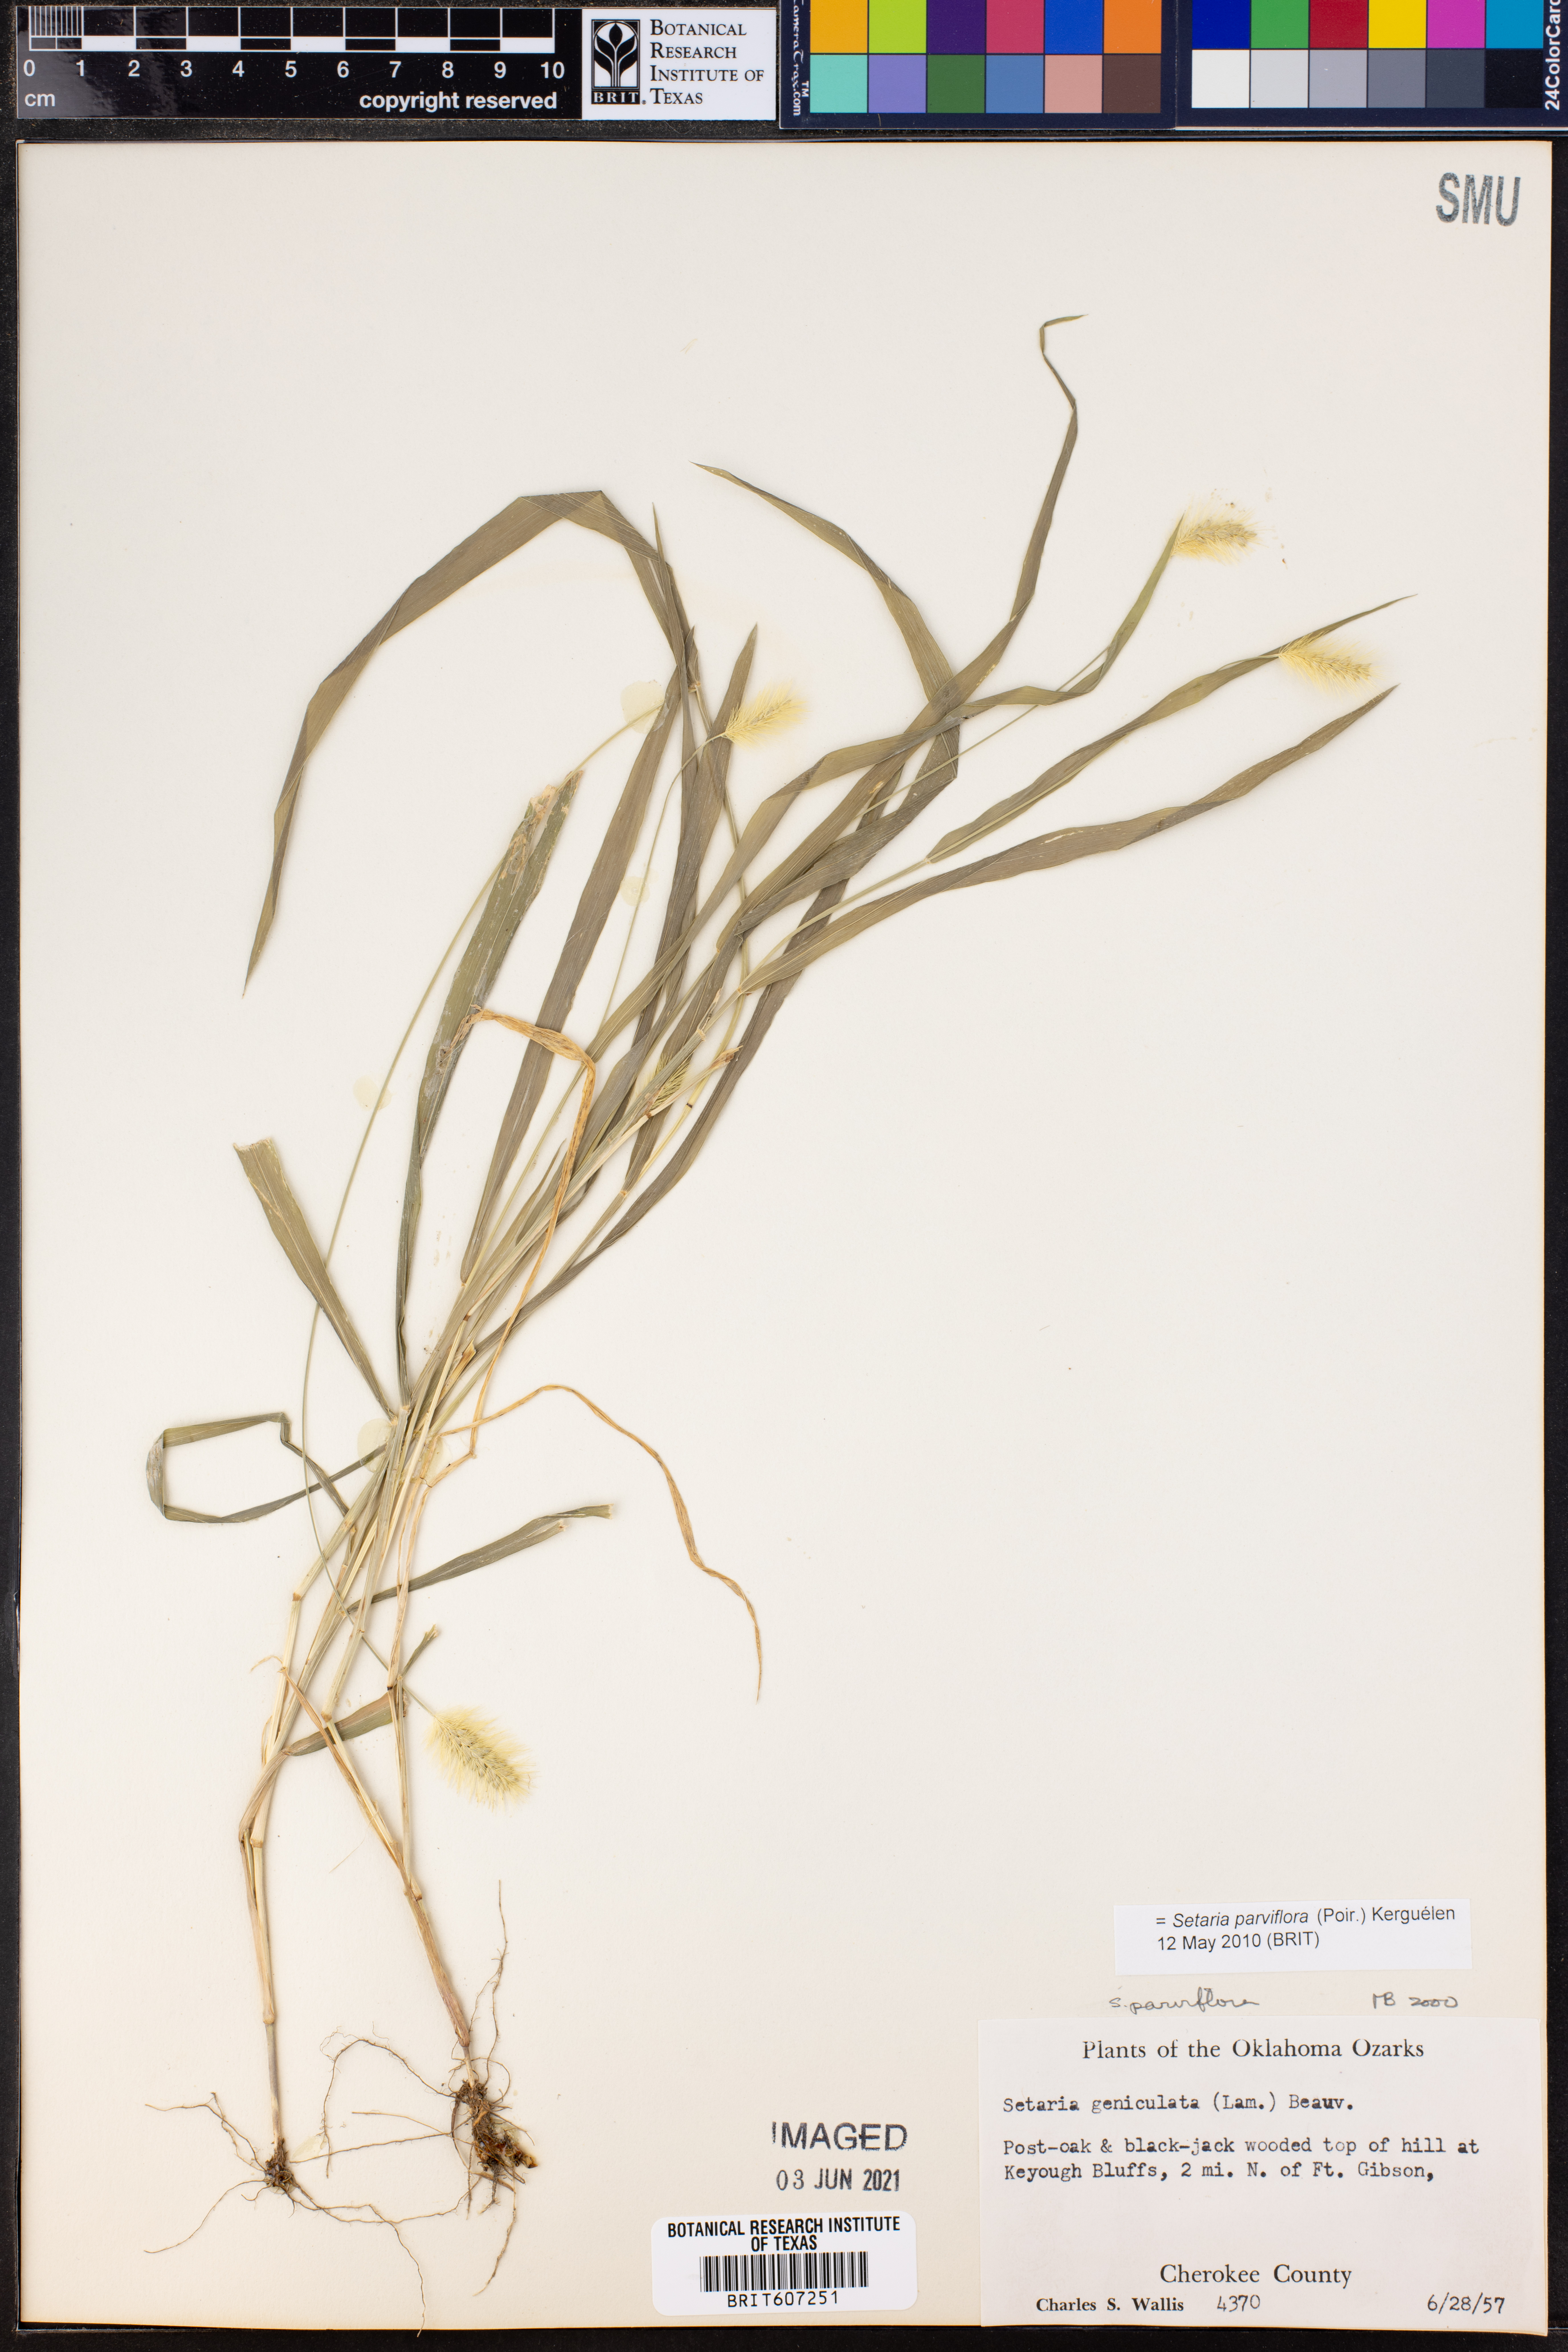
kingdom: Plantae
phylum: Tracheophyta
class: Liliopsida
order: Poales
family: Poaceae
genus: Setaria
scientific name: Setaria parviflora
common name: Knotroot bristle-grass
